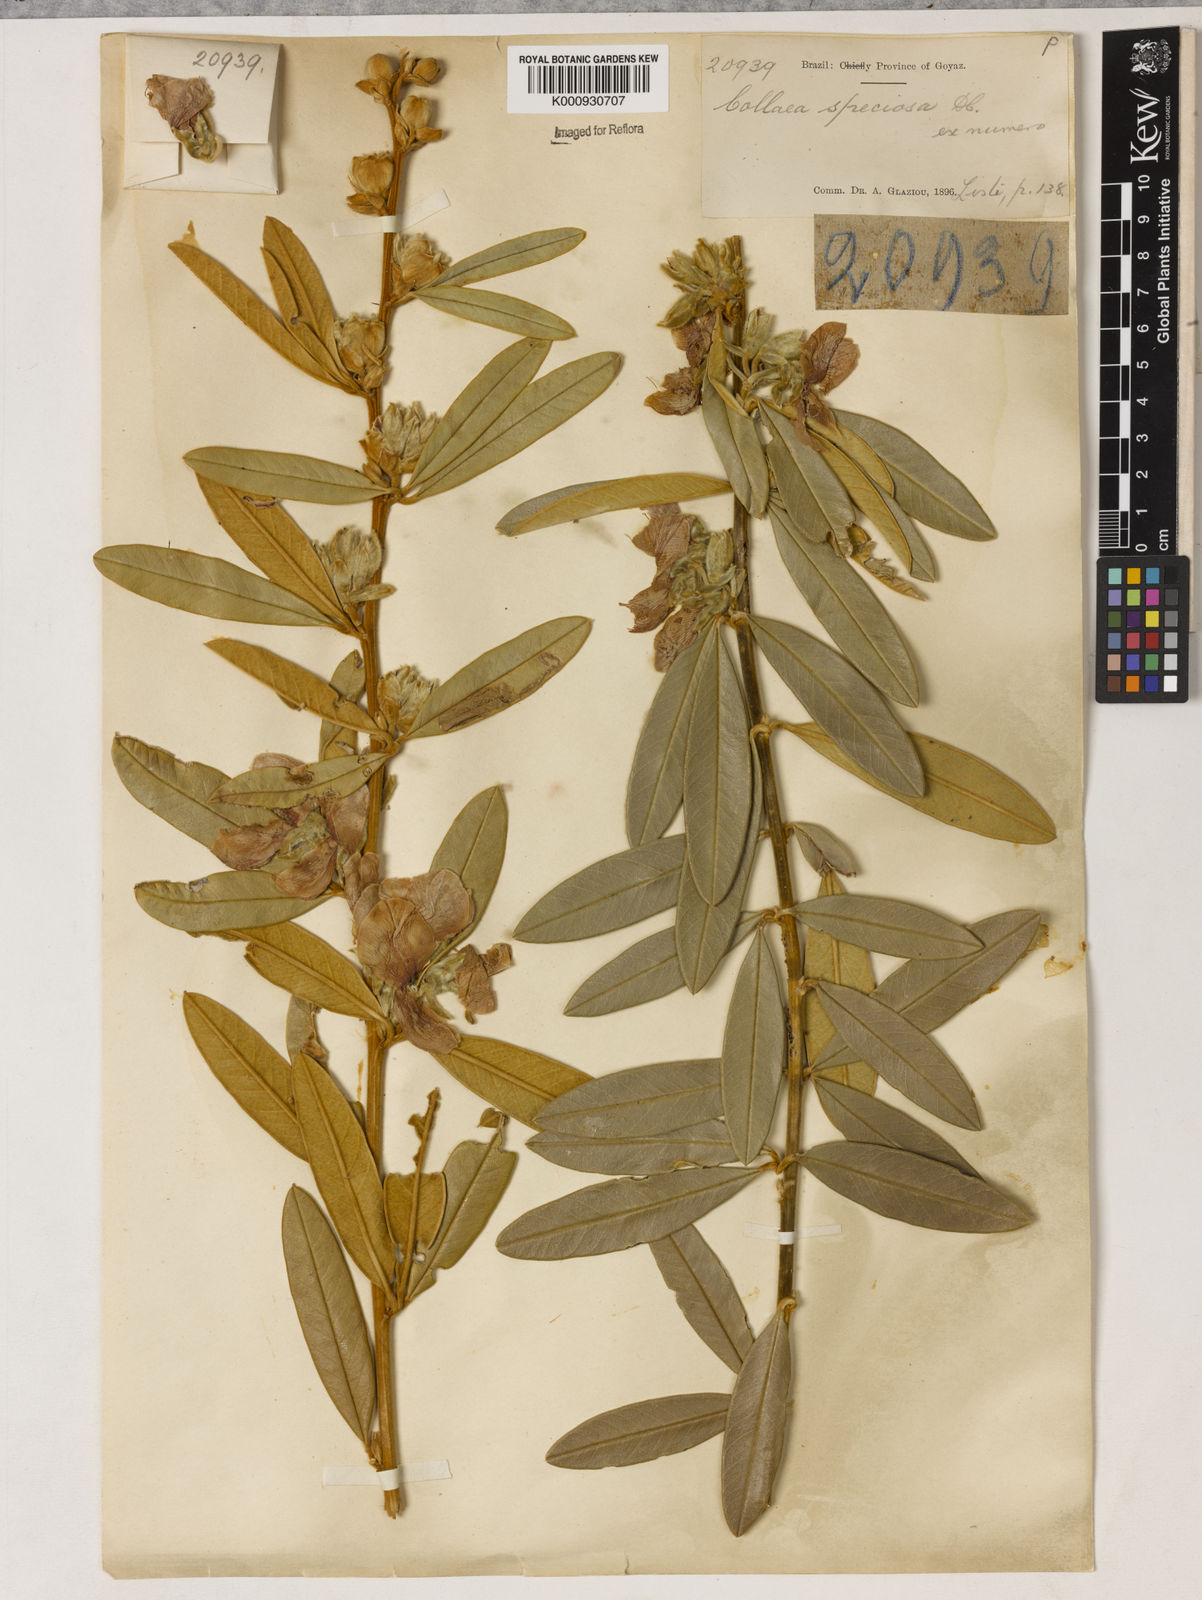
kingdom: Plantae
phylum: Tracheophyta
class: Magnoliopsida
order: Lamiales
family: Lamiaceae
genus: Coleus
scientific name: Coleus barbatus
